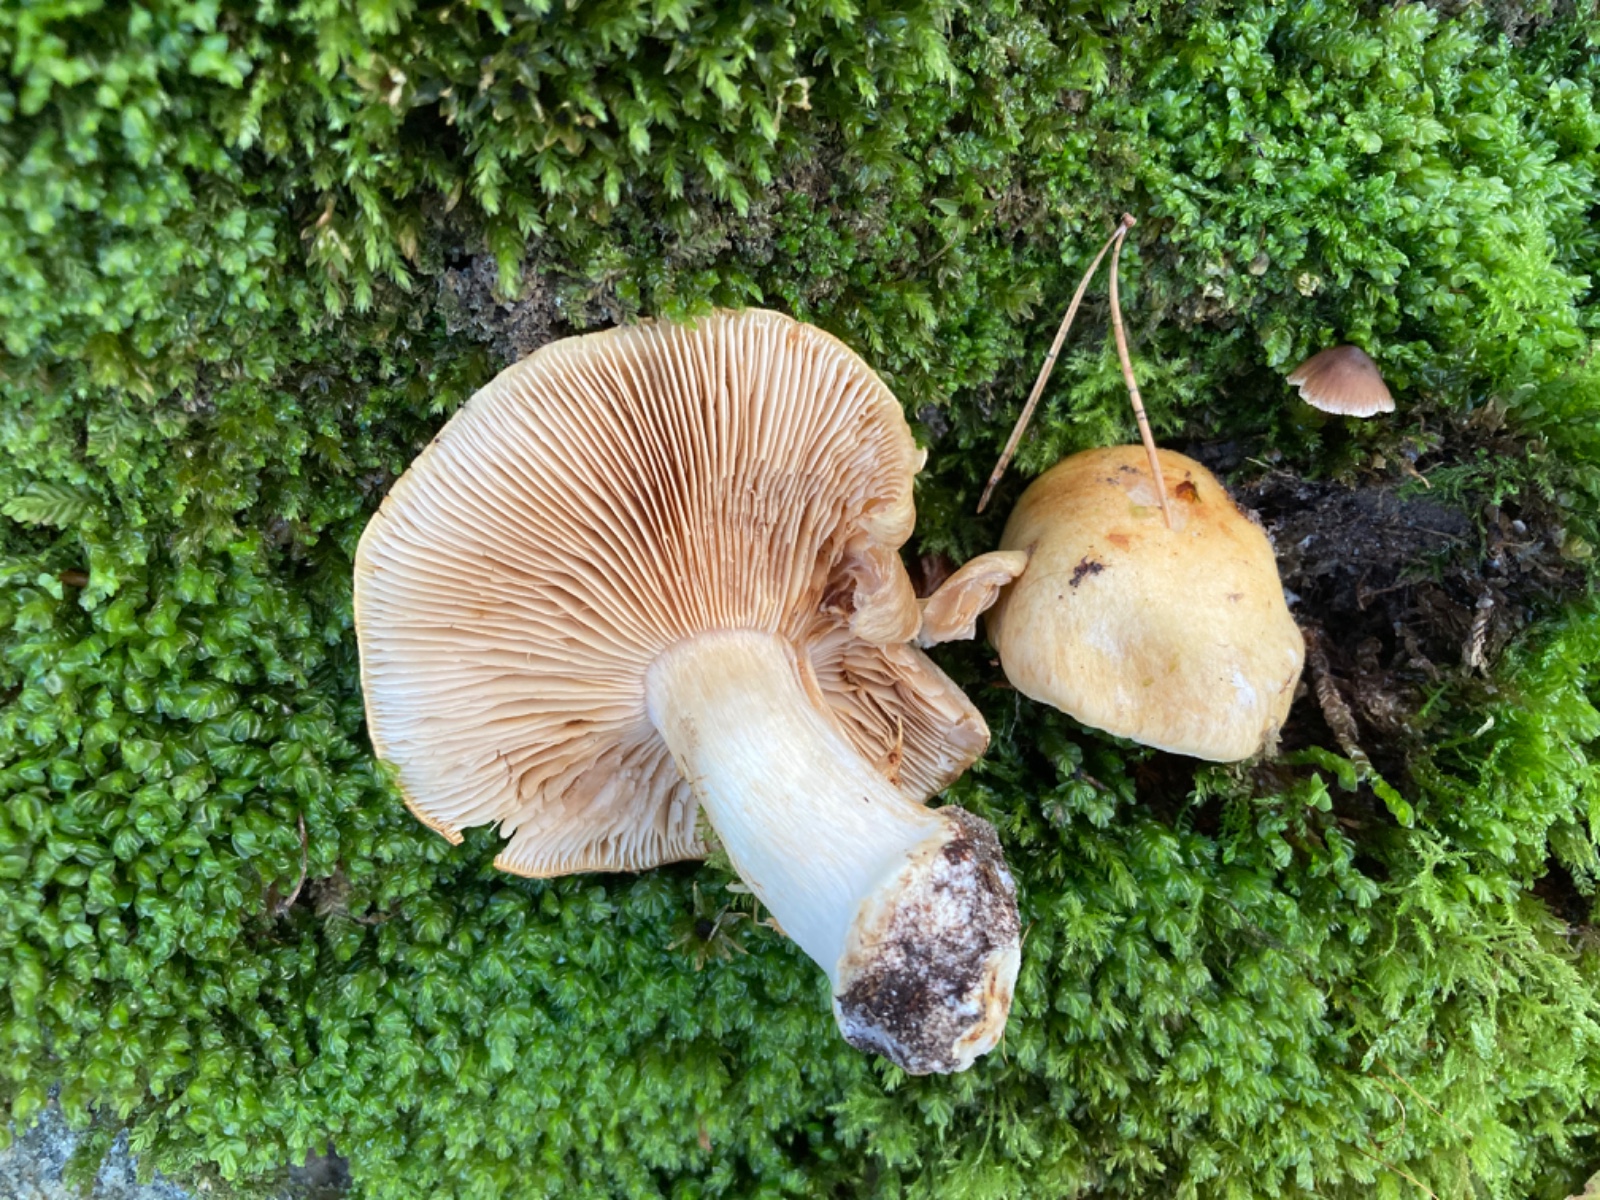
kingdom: Fungi
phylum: Basidiomycota
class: Agaricomycetes
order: Agaricales
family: Cortinariaceae
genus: Phlegmacium
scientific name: Phlegmacium xantho-ochraceum
